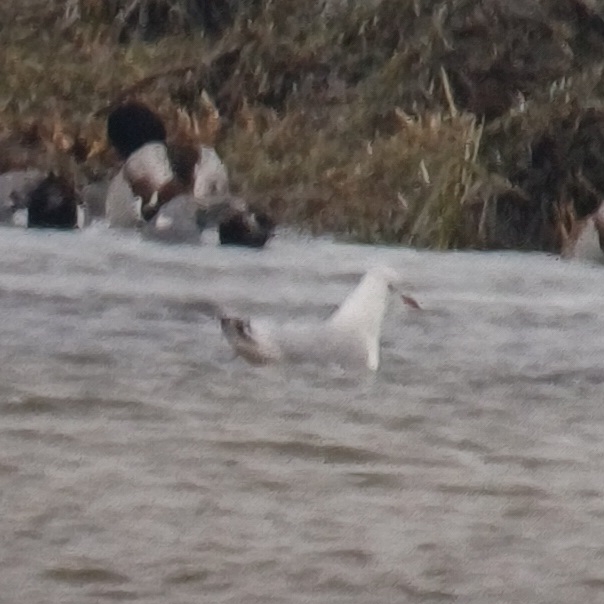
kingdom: Animalia
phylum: Chordata
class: Aves
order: Charadriiformes
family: Laridae
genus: Chroicocephalus
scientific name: Chroicocephalus ridibundus
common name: Hættemåge
